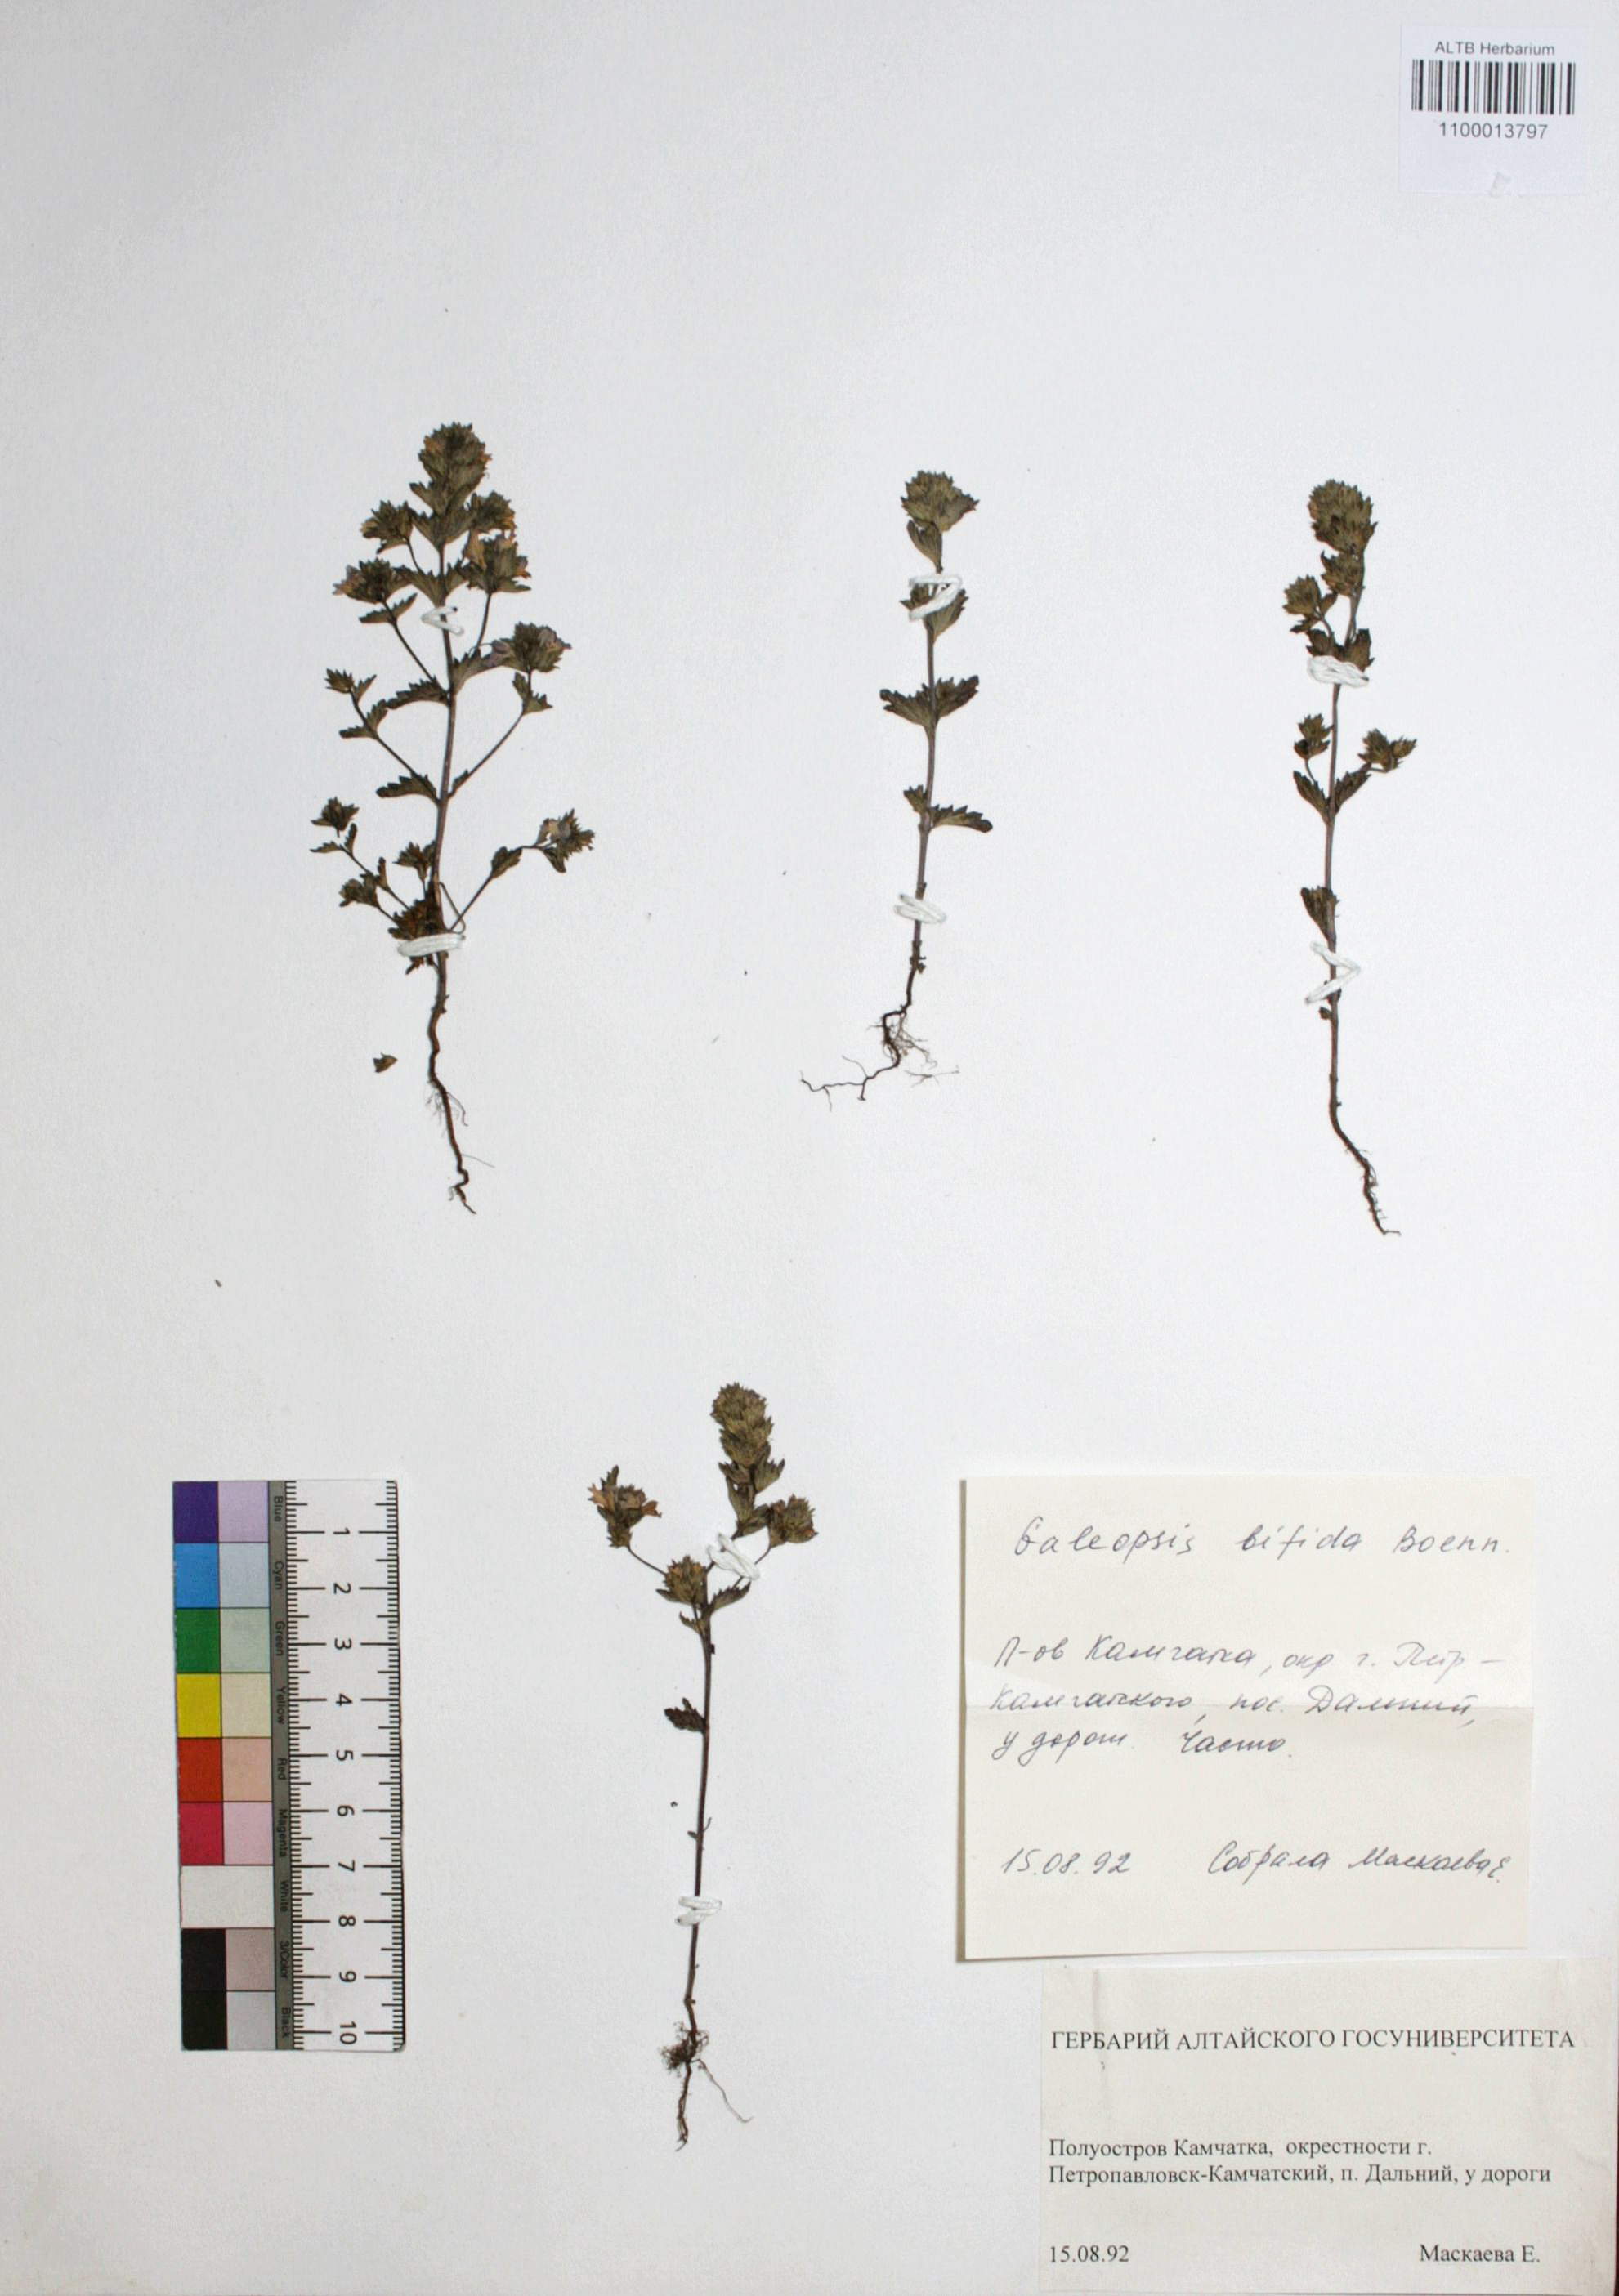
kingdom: Plantae
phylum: Tracheophyta
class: Magnoliopsida
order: Lamiales
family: Lamiaceae
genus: Galeopsis
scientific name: Galeopsis bifida
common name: Bifid hemp-nettle
